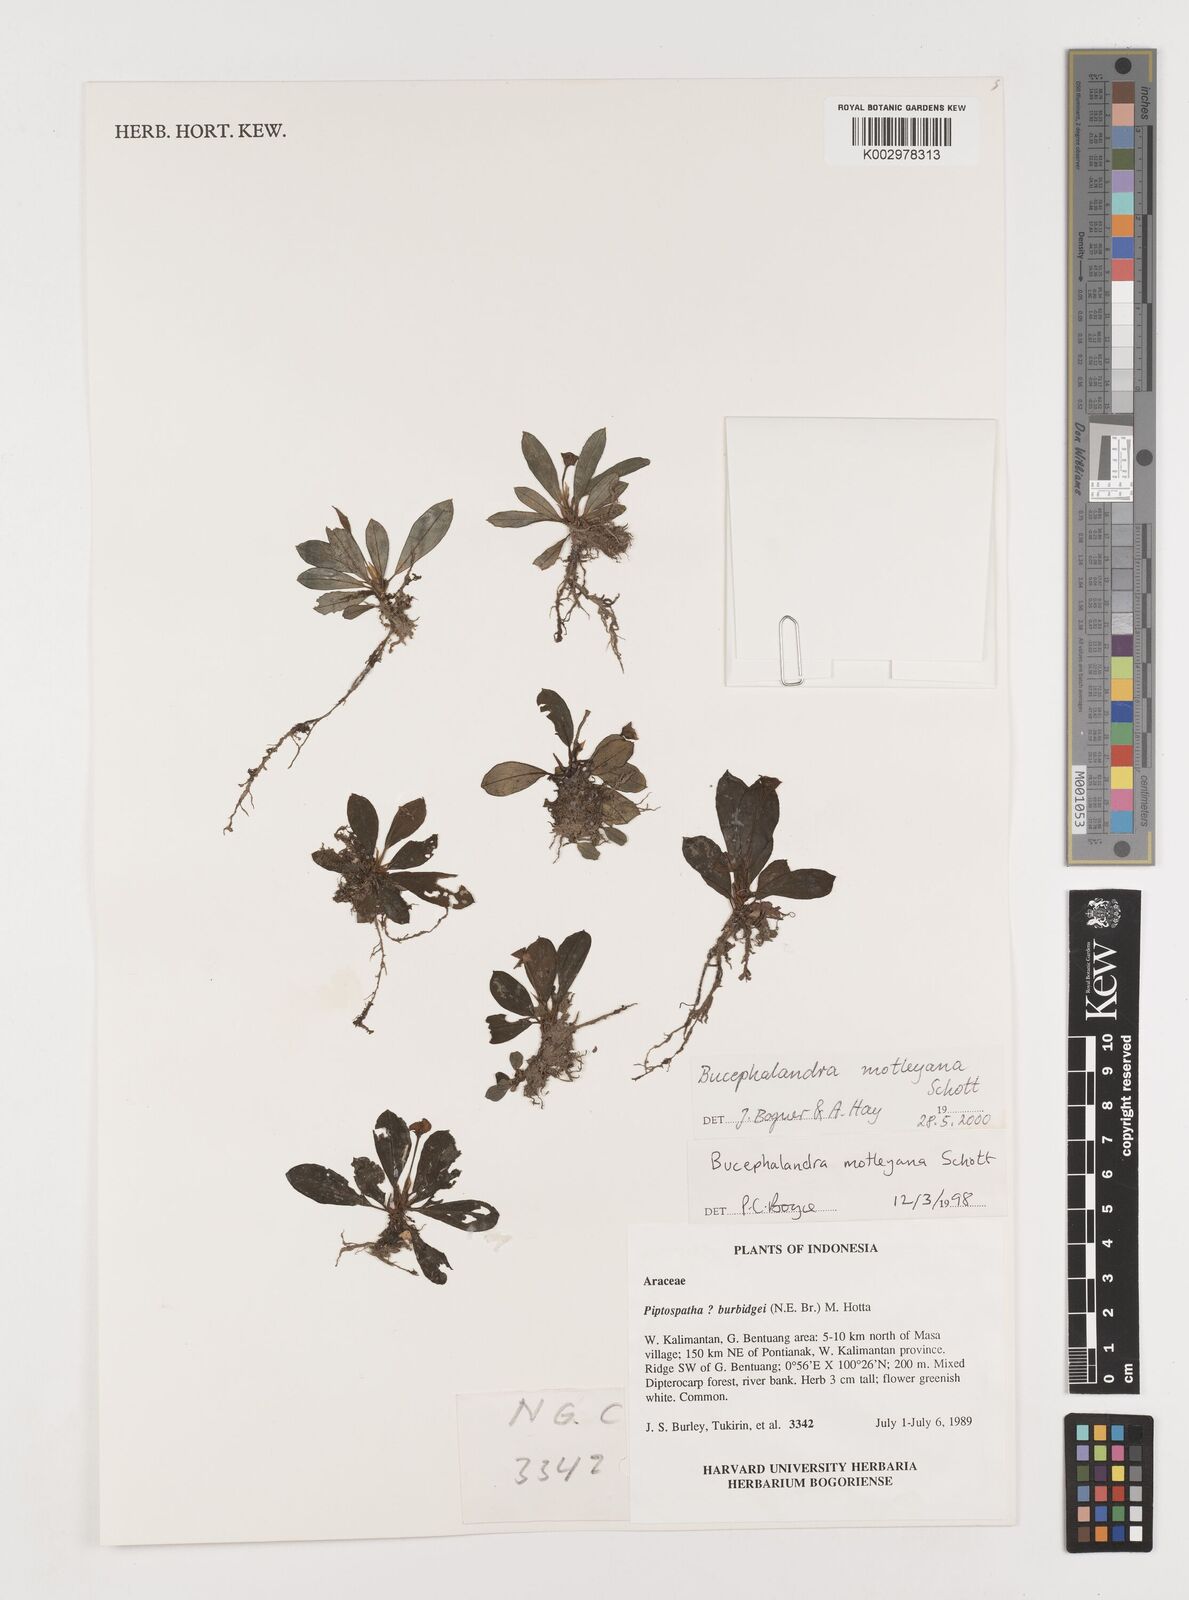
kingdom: Plantae
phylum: Tracheophyta
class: Liliopsida
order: Alismatales
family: Araceae
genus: Bucephalandra
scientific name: Bucephalandra motleyana
